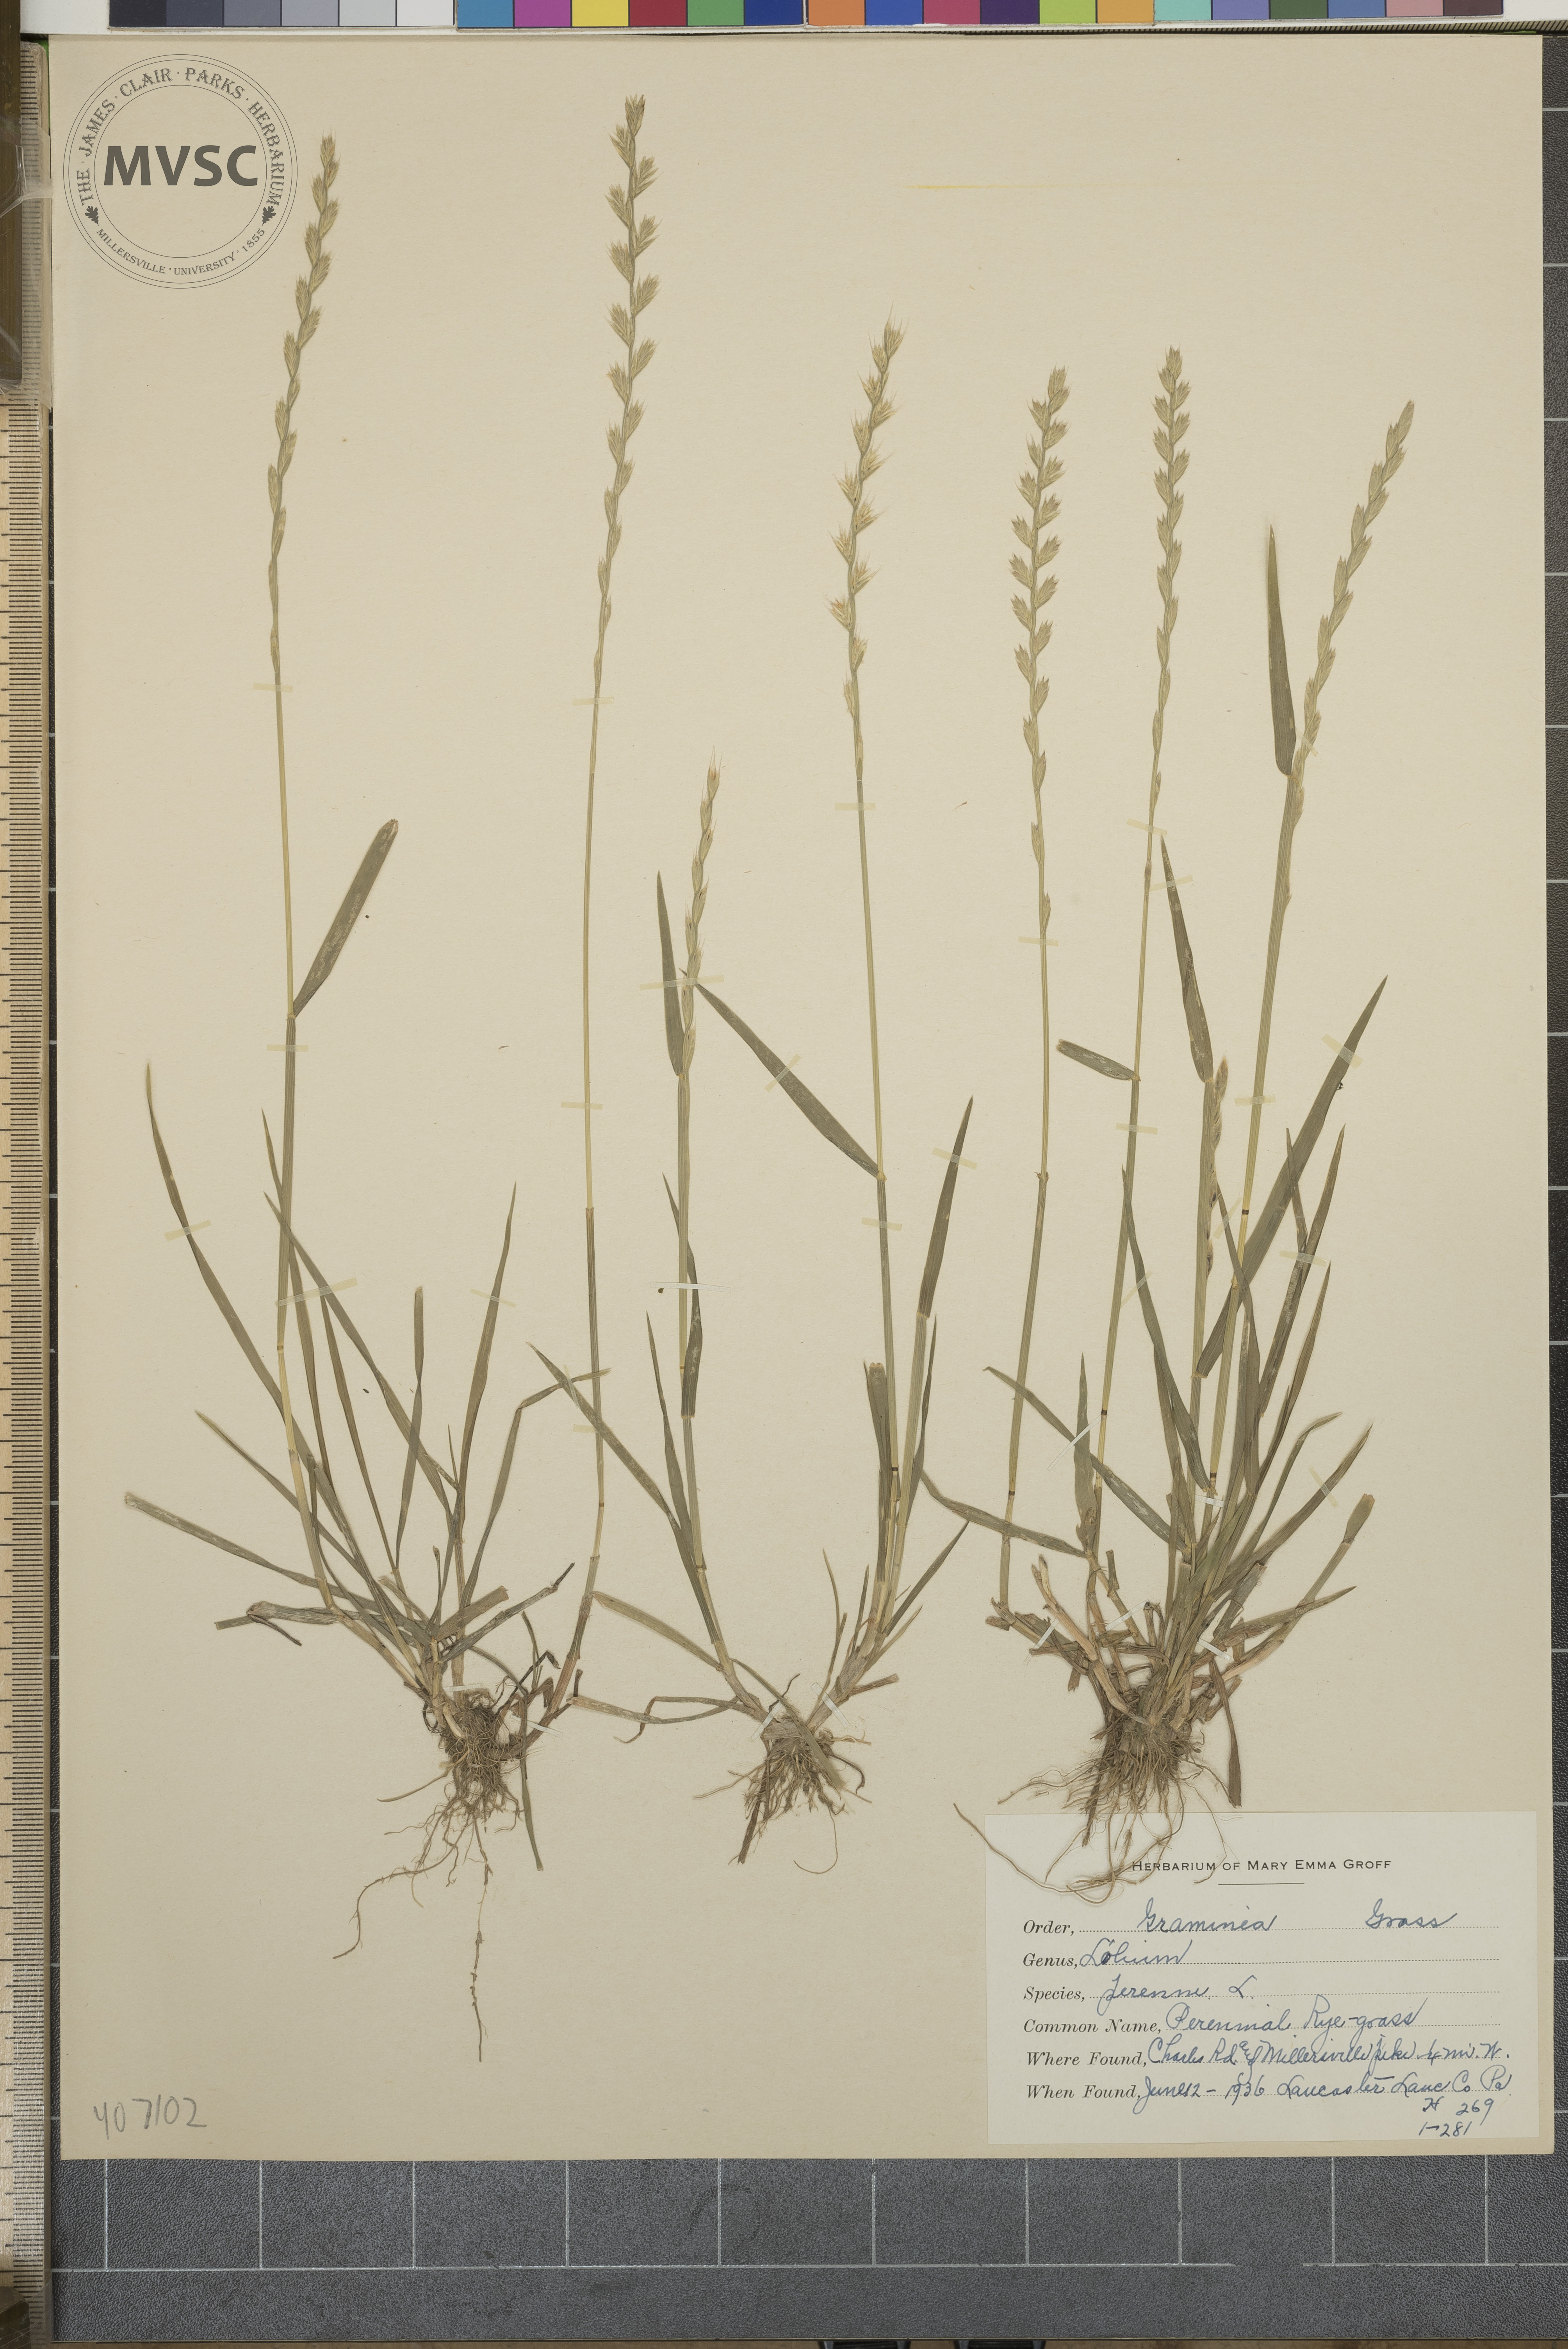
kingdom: Plantae
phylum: Tracheophyta
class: Liliopsida
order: Poales
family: Poaceae
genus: Lolium
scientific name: Lolium perenne
